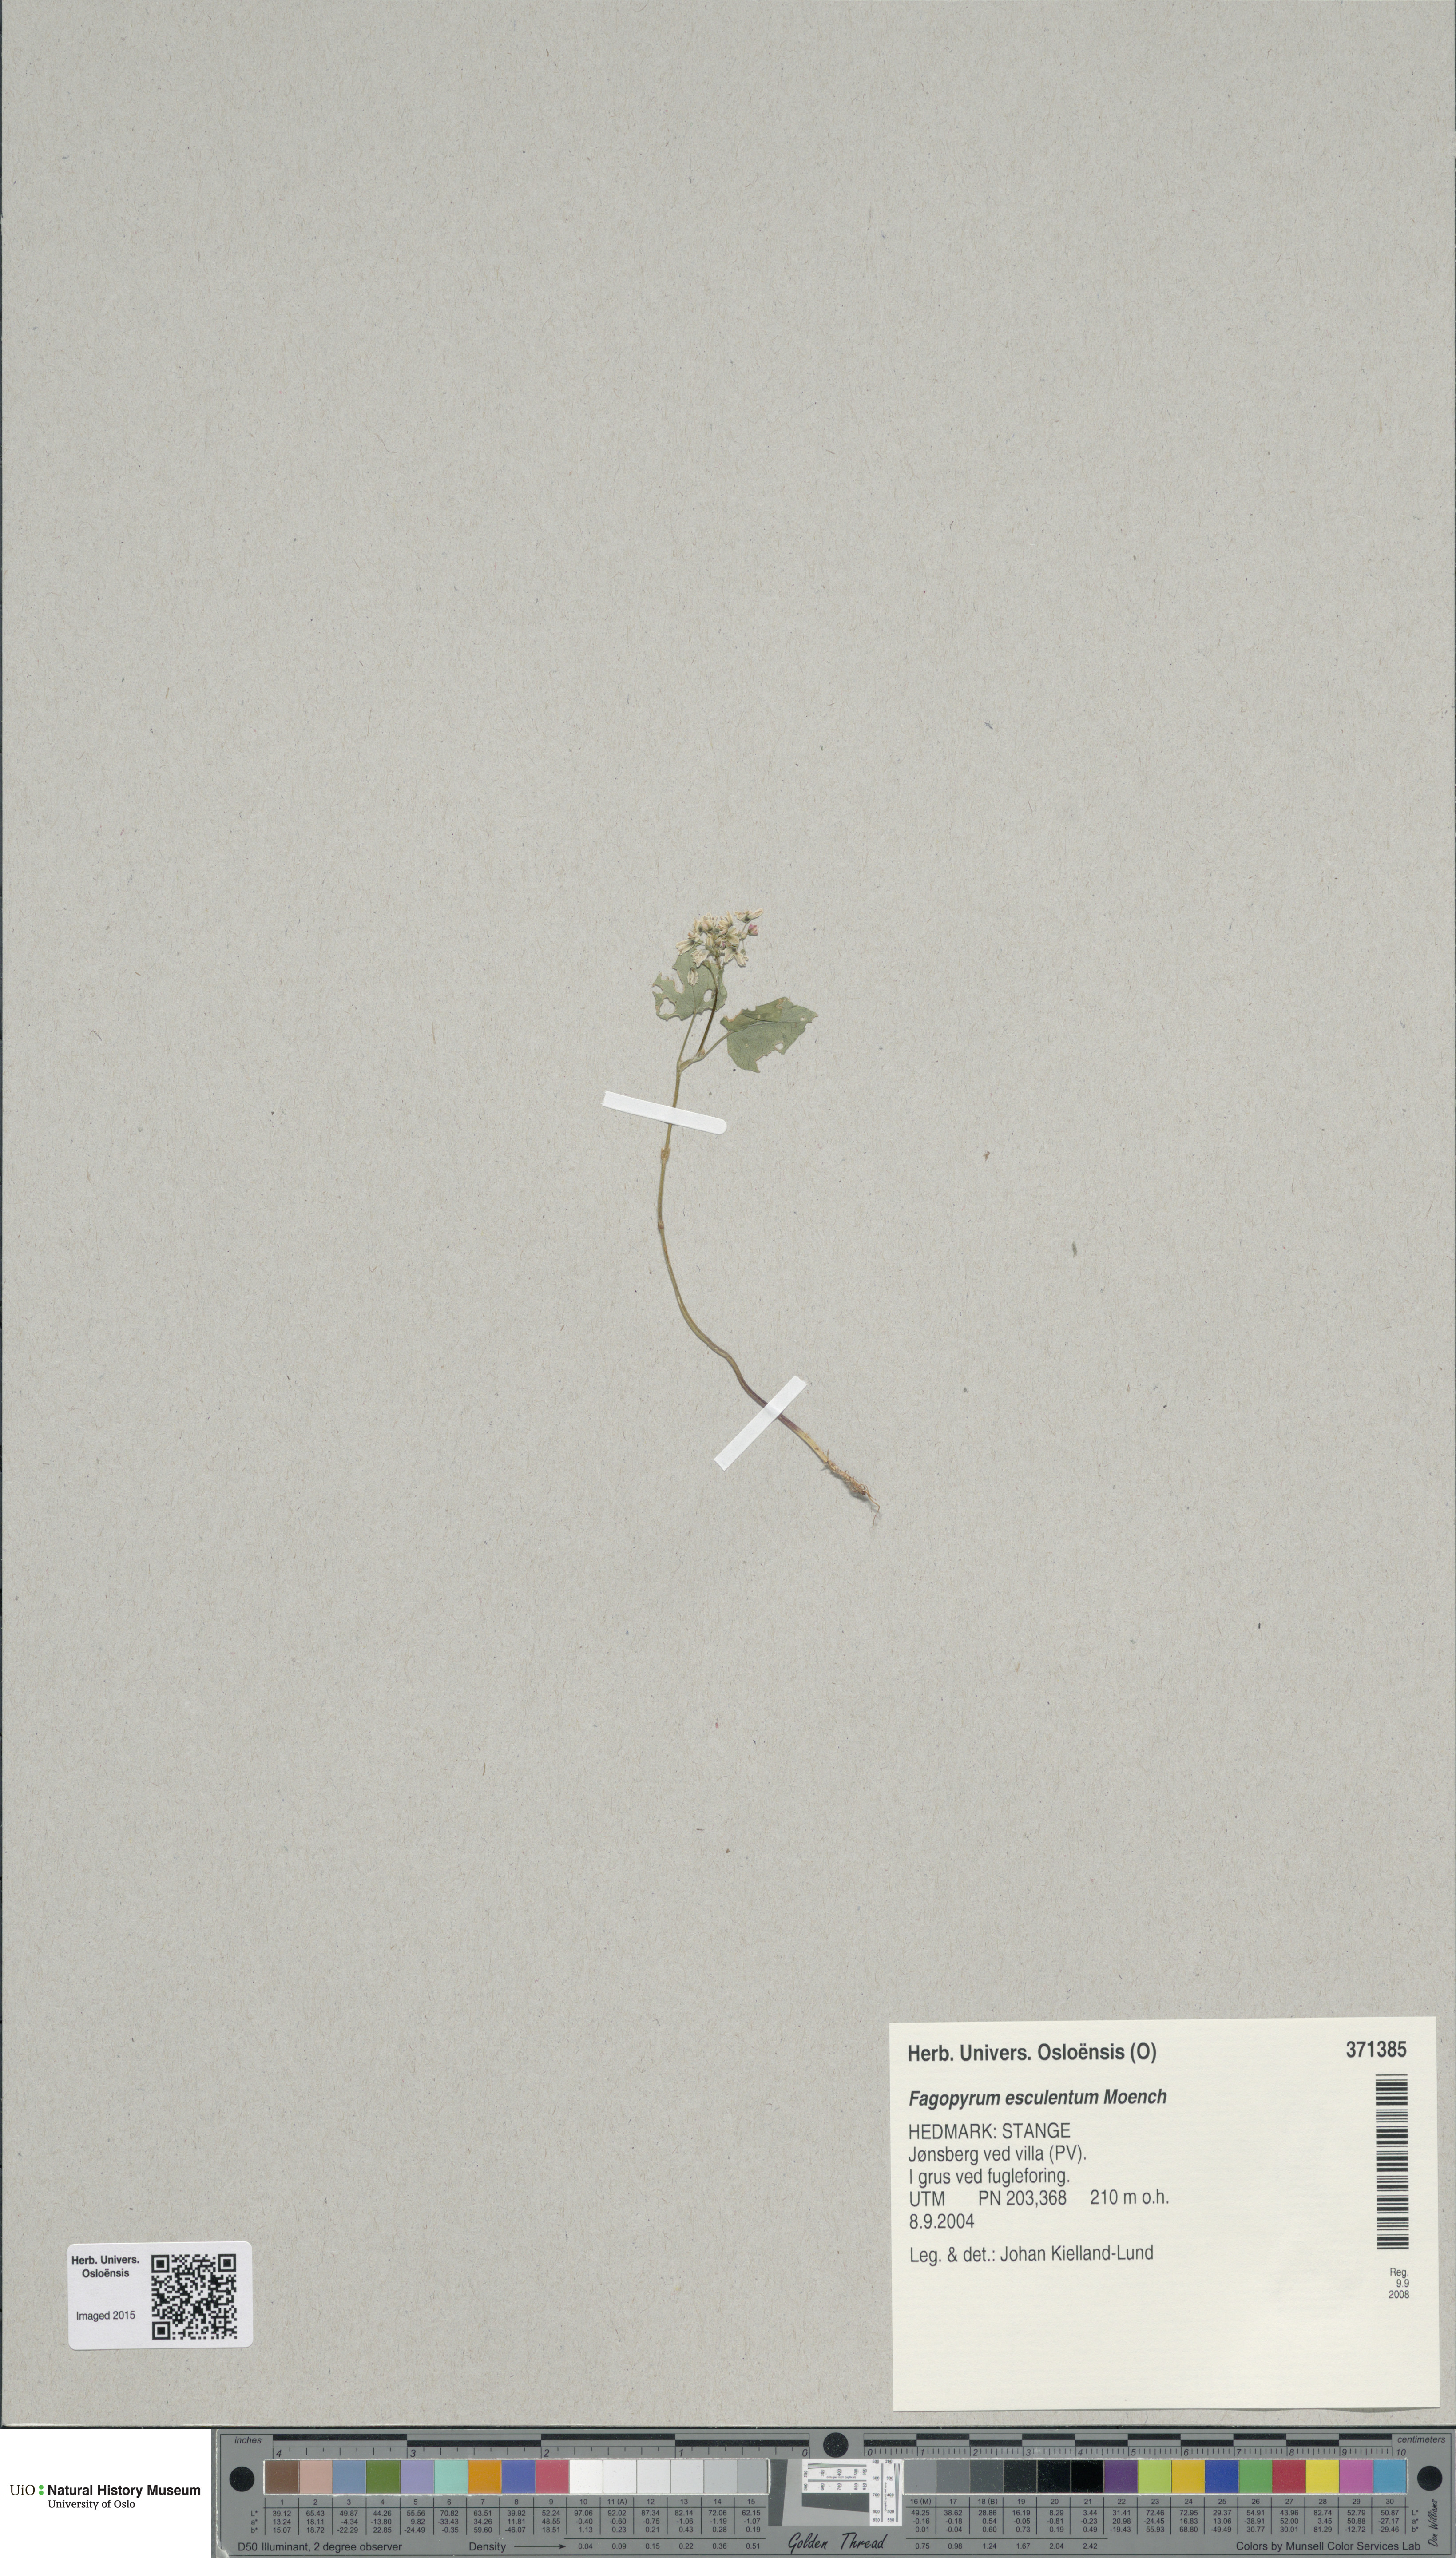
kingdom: Plantae
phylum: Tracheophyta
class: Magnoliopsida
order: Caryophyllales
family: Polygonaceae
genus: Fagopyrum
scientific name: Fagopyrum esculentum
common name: Buckwheat
